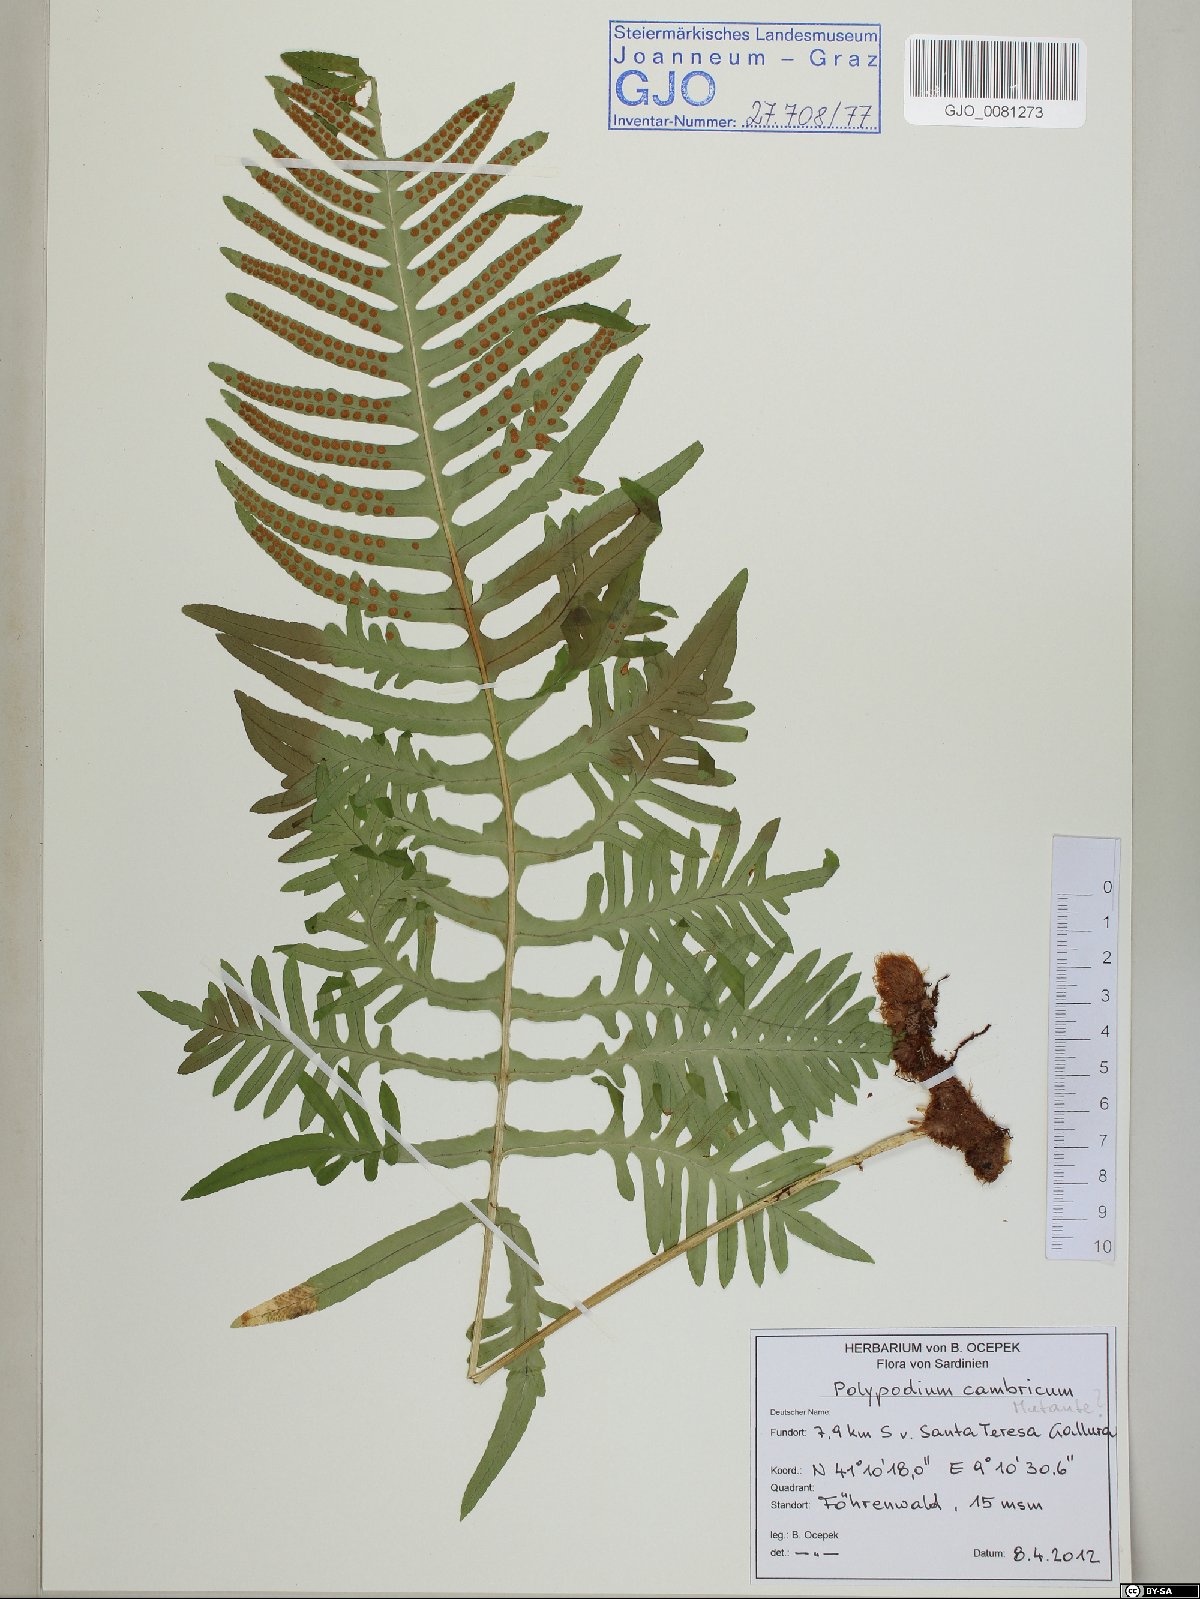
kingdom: Plantae
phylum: Tracheophyta
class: Polypodiopsida
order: Polypodiales
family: Polypodiaceae
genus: Polypodium
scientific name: Polypodium cambricum
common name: Southern polypody
